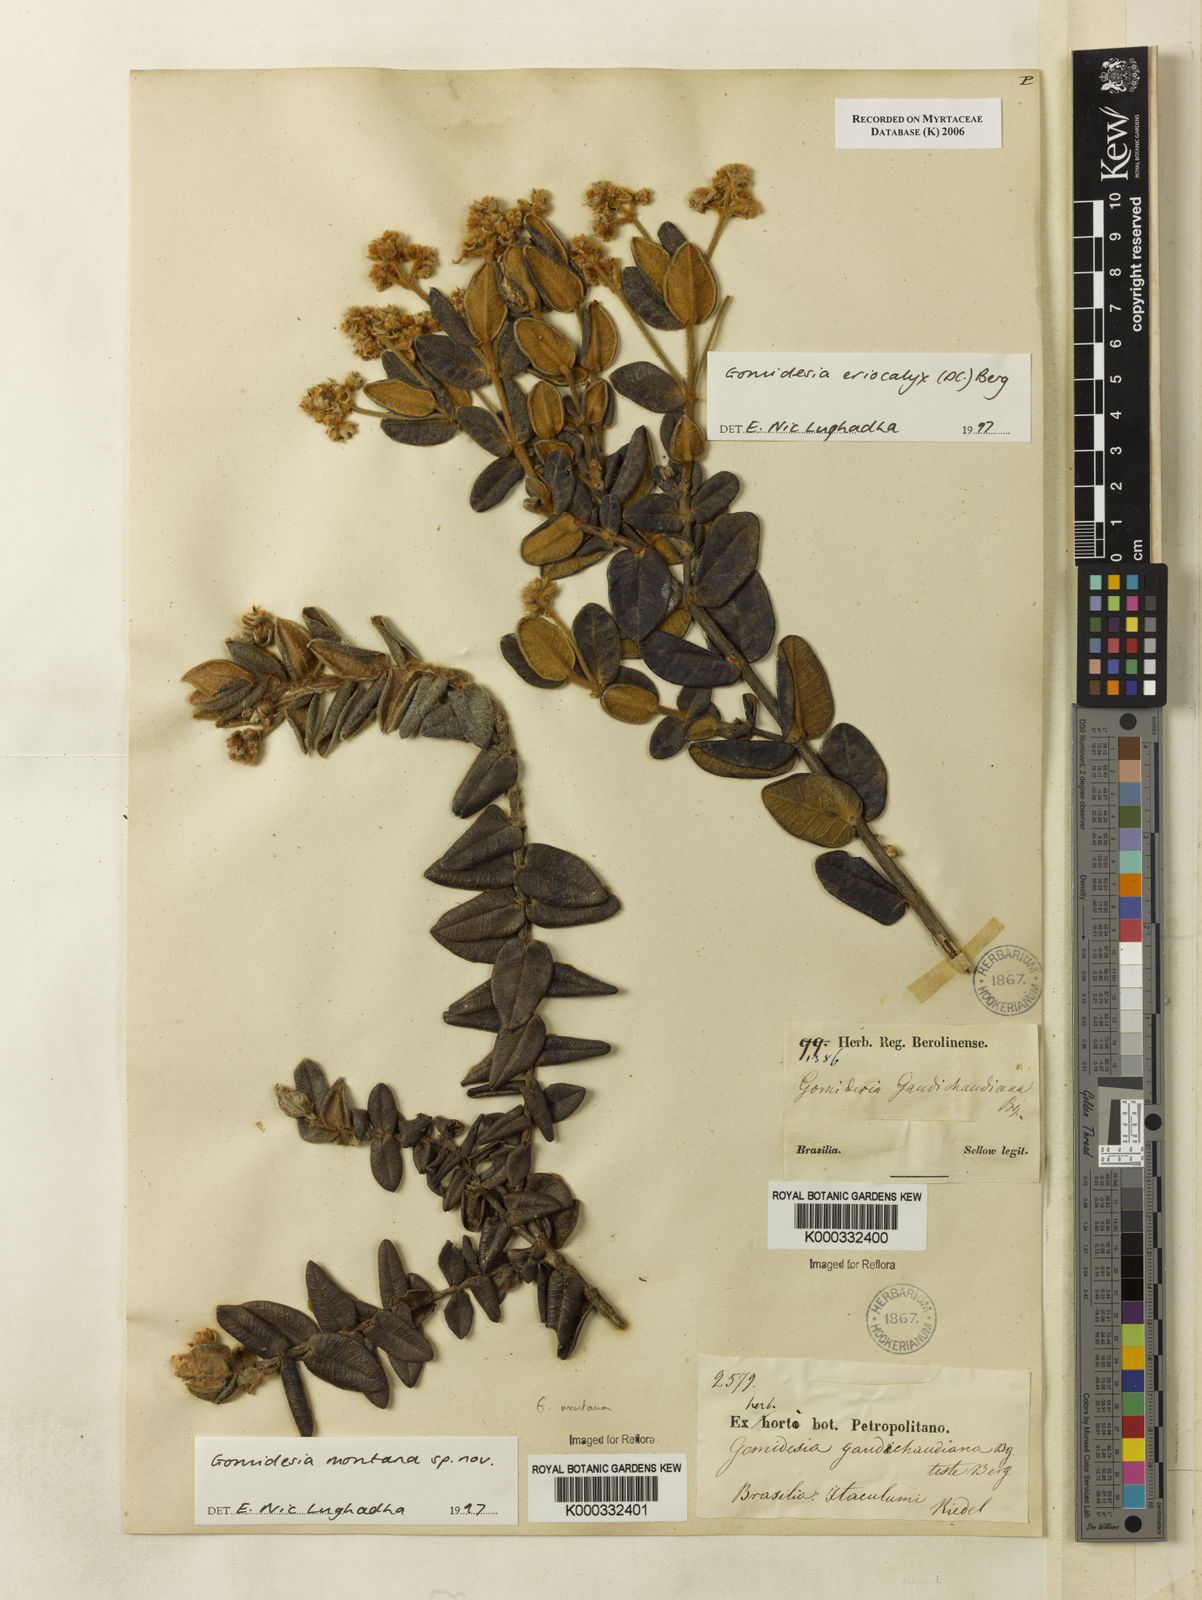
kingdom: Plantae
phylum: Tracheophyta
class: Magnoliopsida
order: Myrtales
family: Myrtaceae
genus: Myrcia
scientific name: Myrcia
